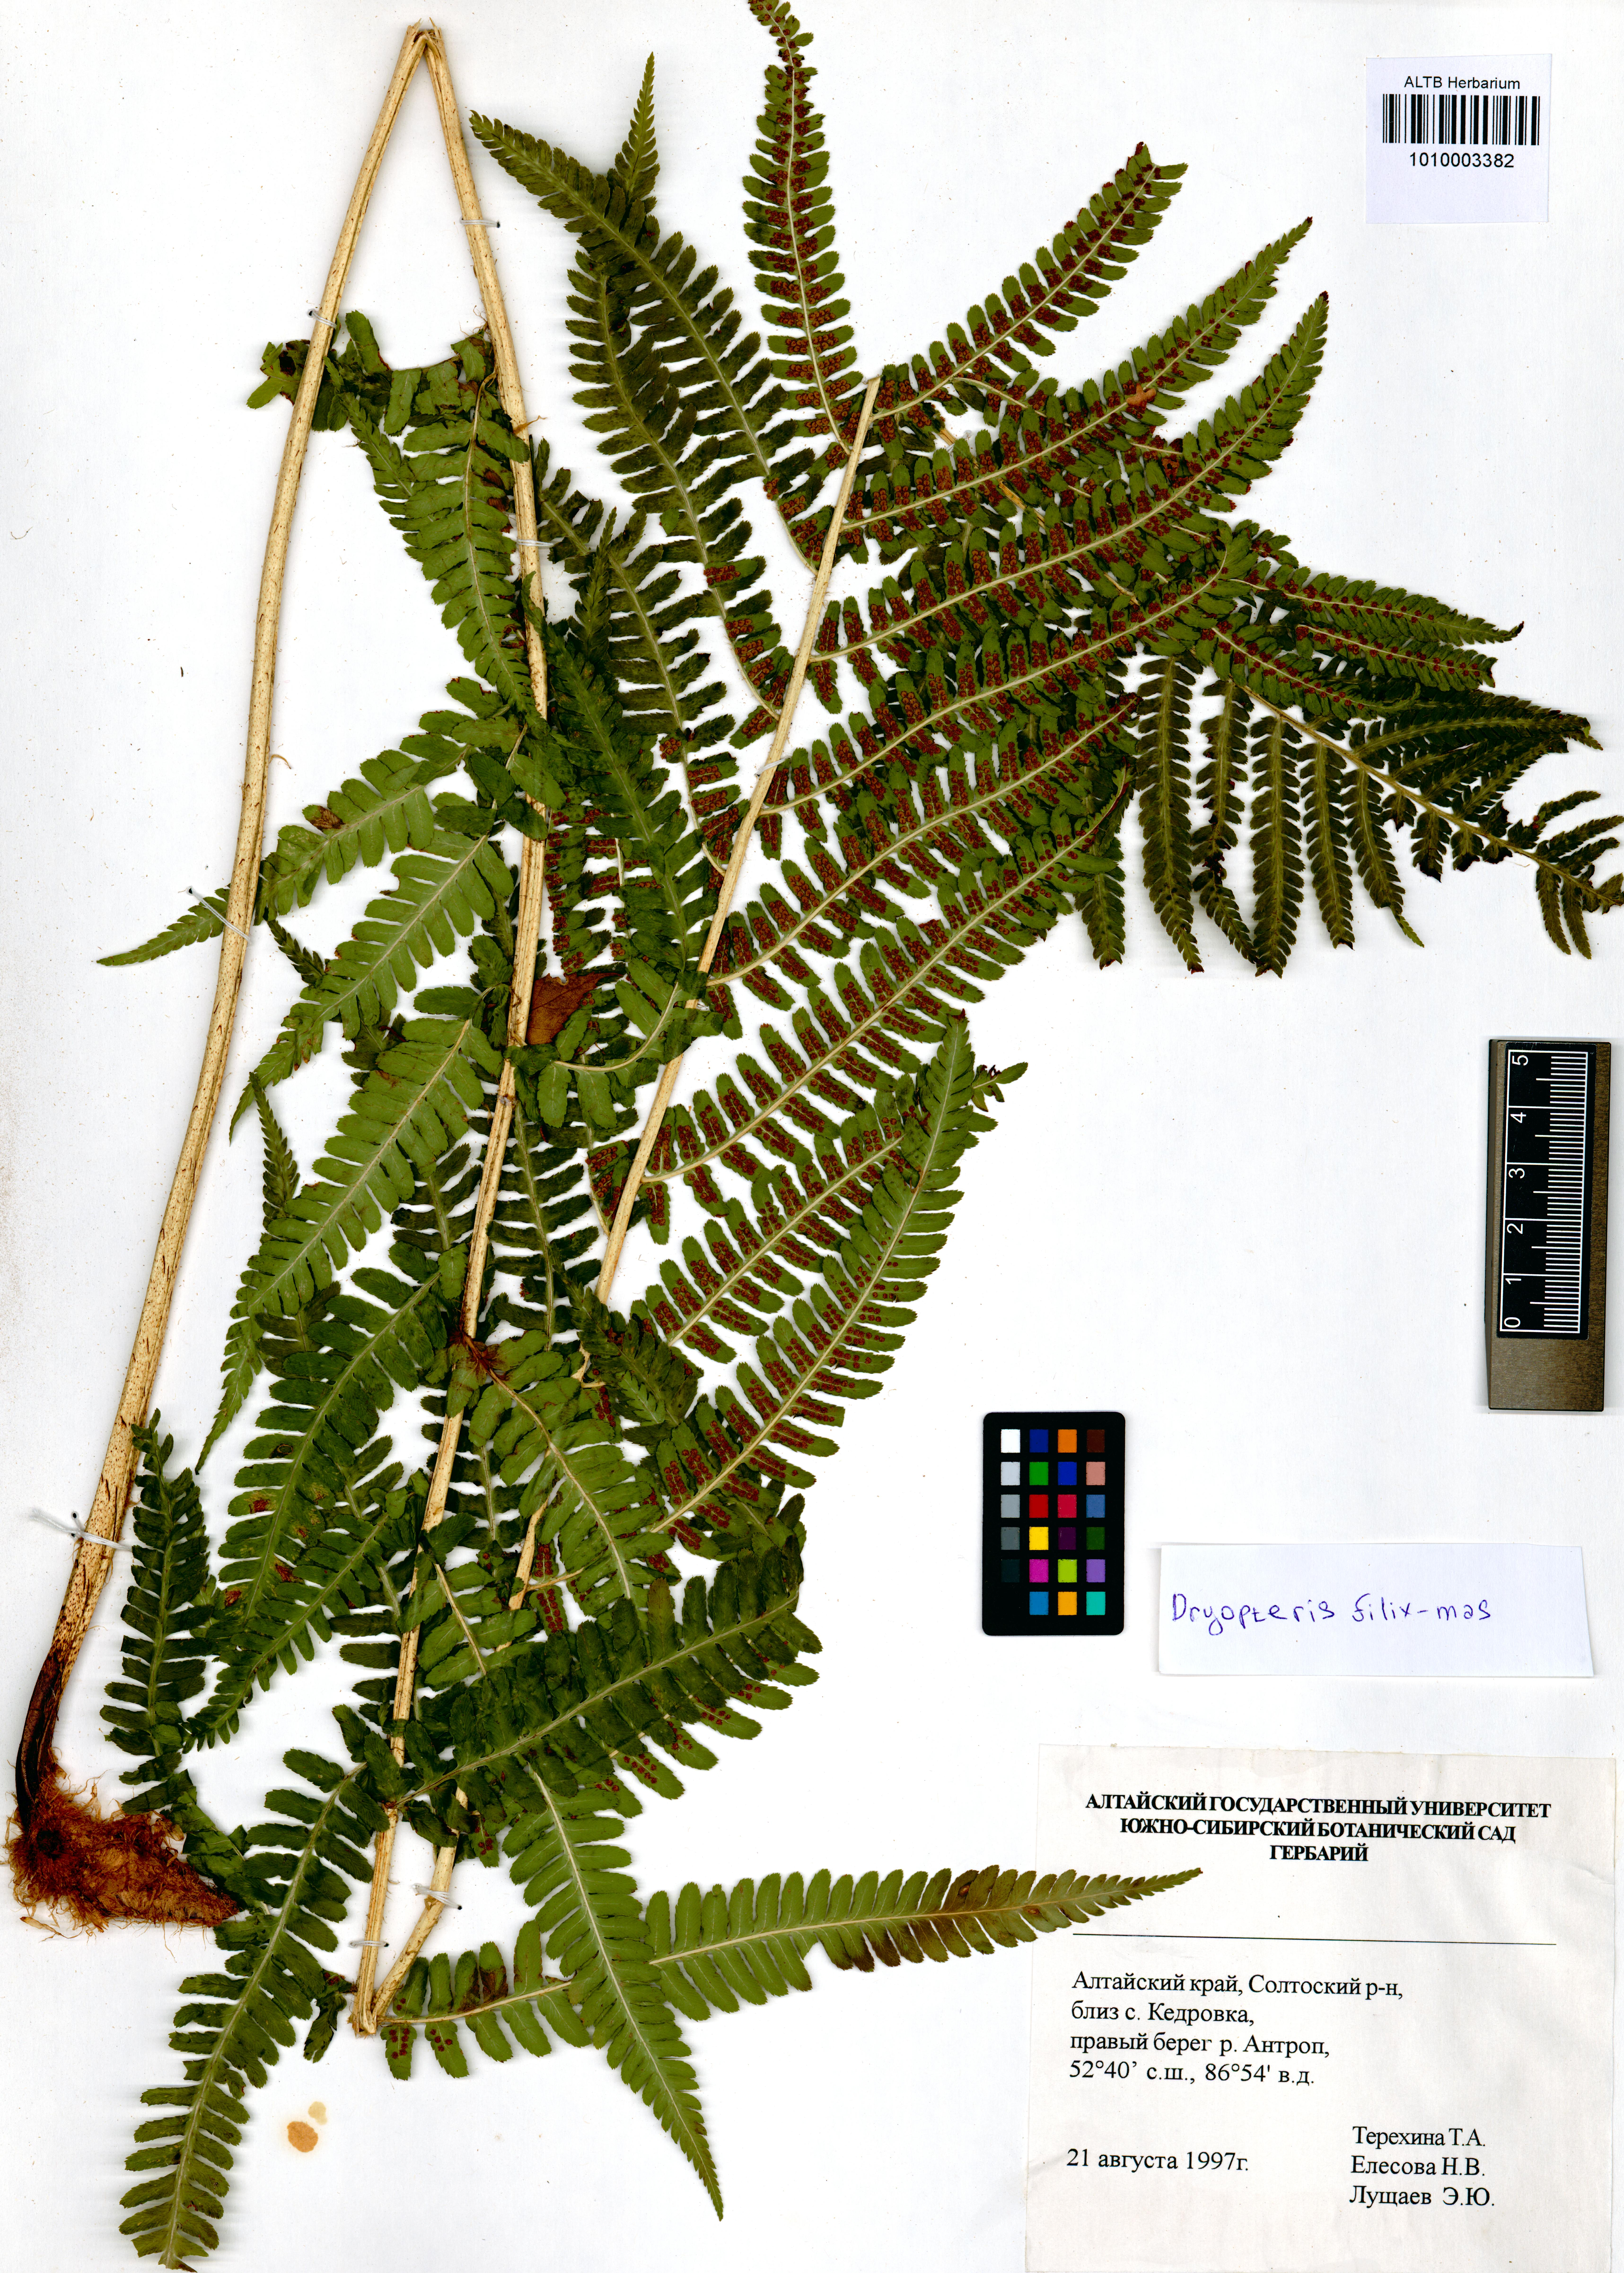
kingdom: Plantae
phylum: Tracheophyta
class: Polypodiopsida
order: Polypodiales
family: Dryopteridaceae
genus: Dryopteris
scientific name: Dryopteris filix-mas
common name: Male fern
